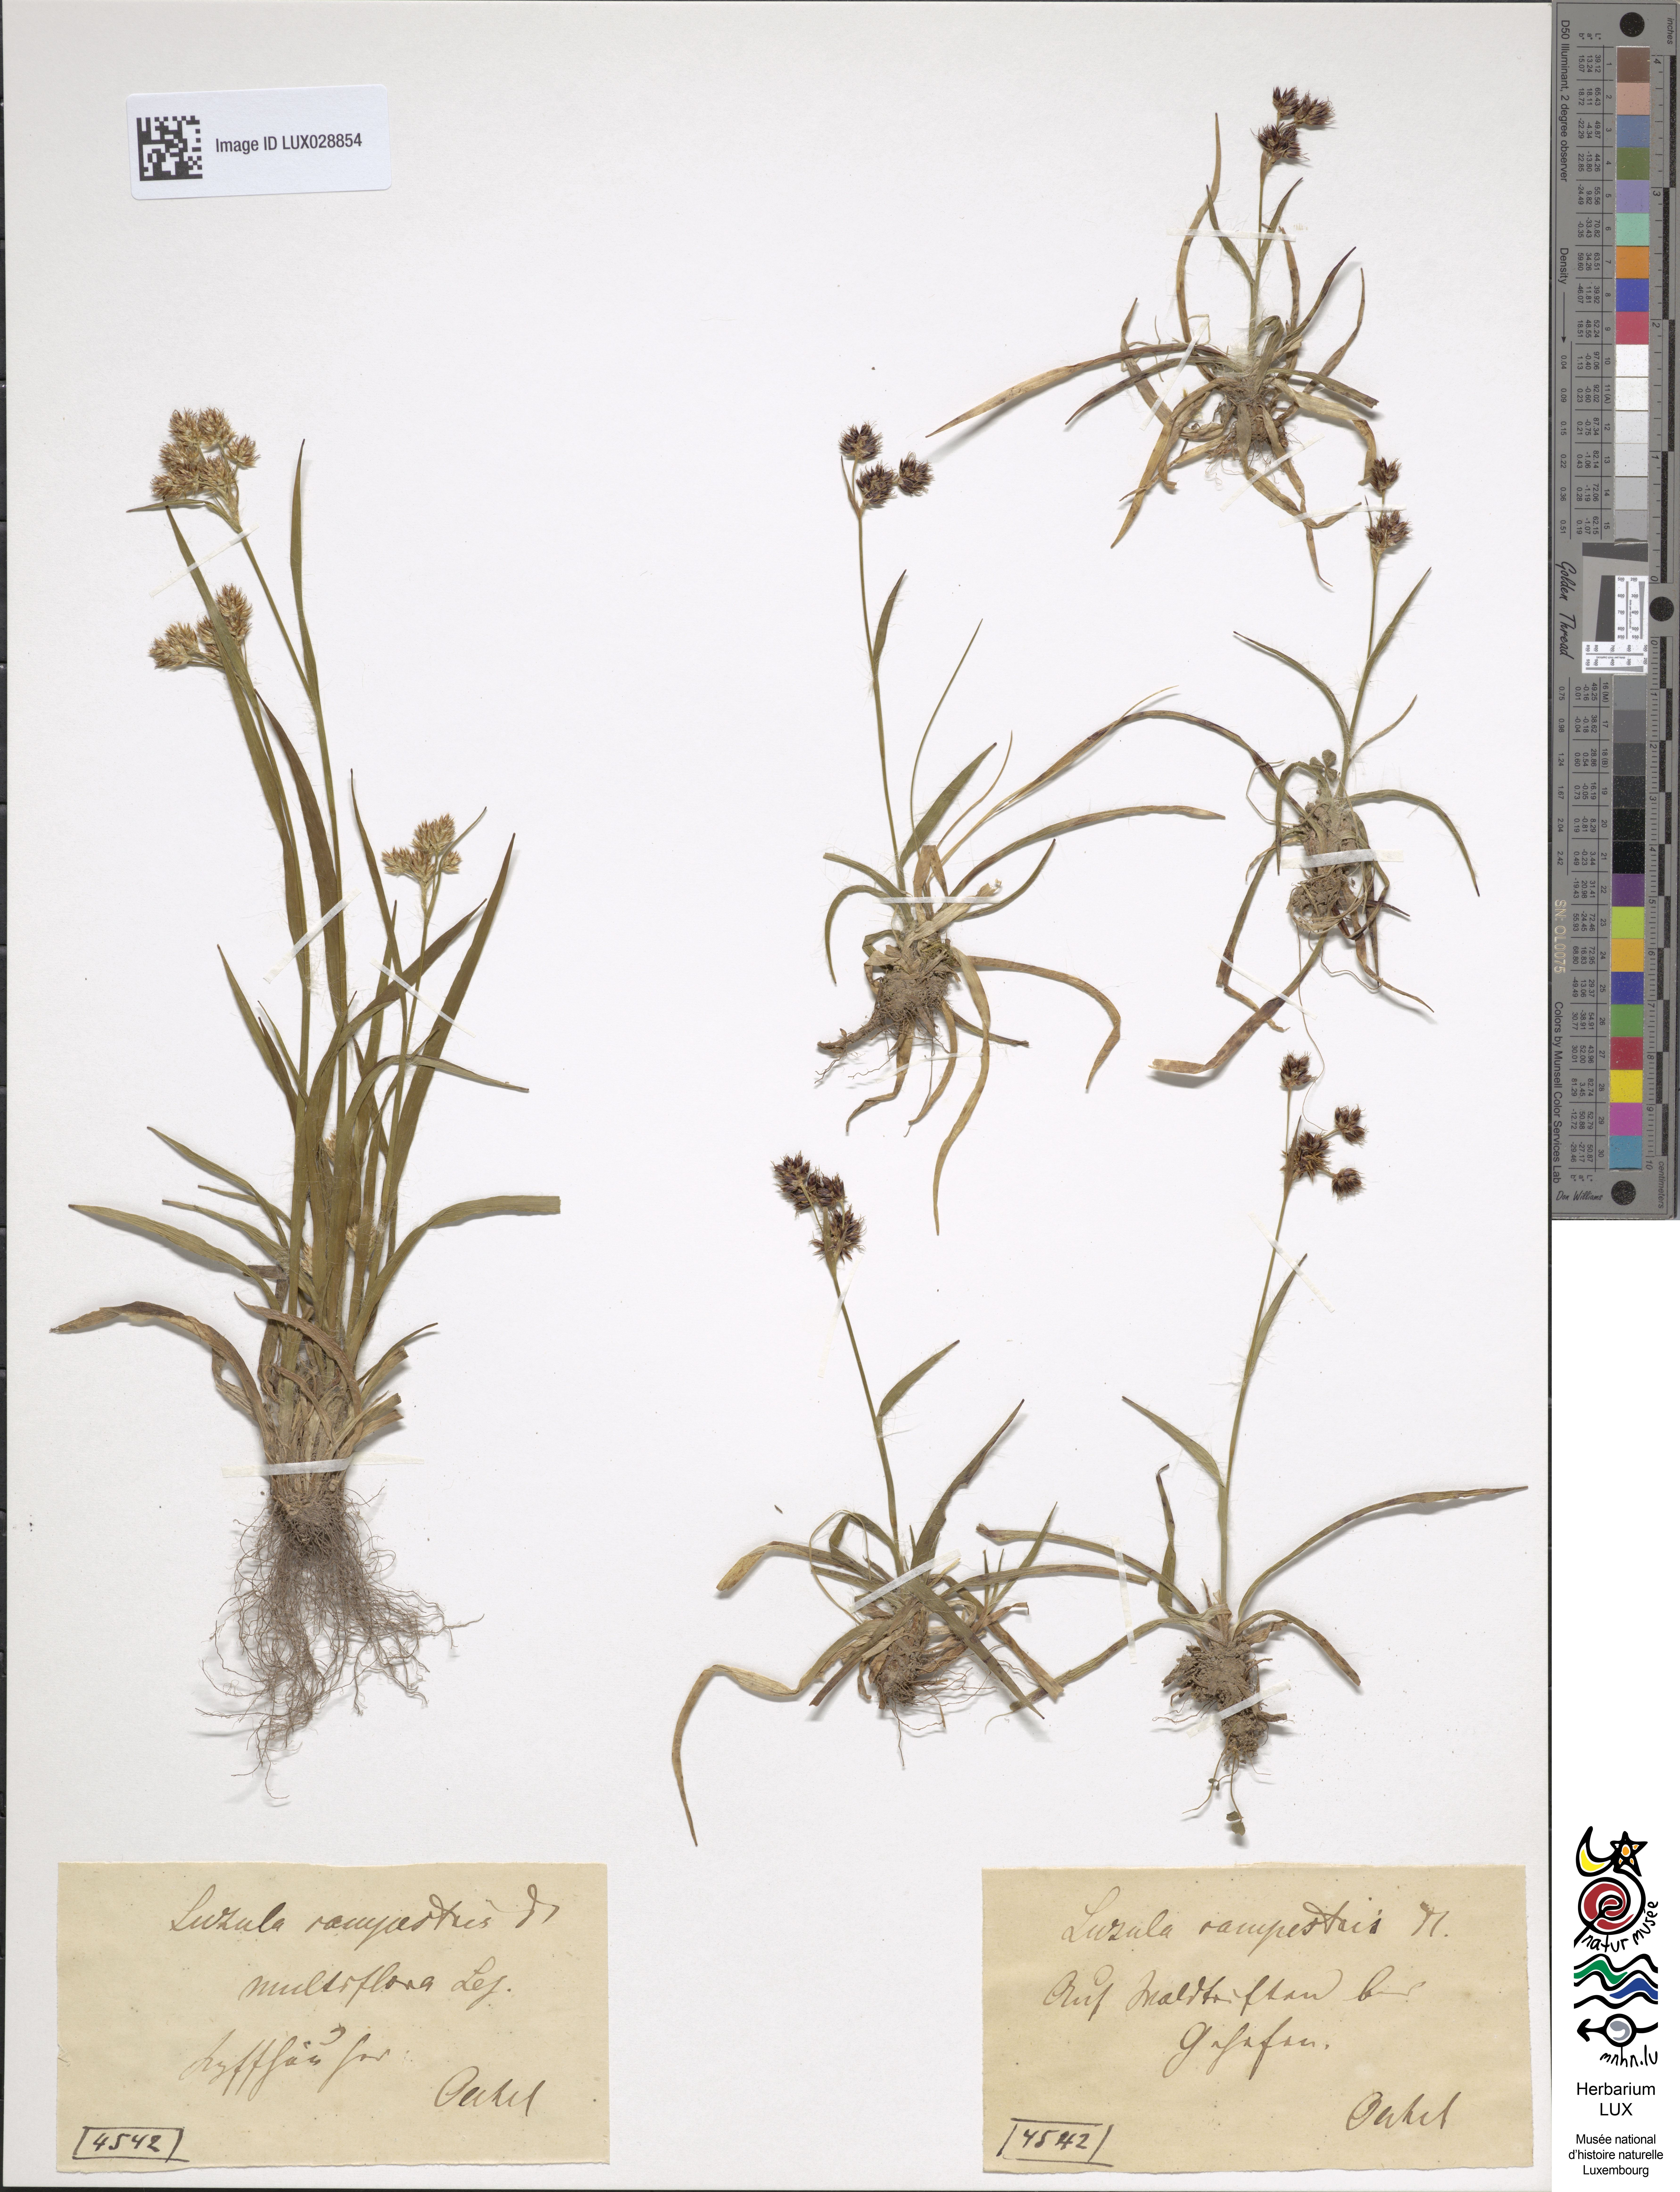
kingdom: Plantae
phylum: Tracheophyta
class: Liliopsida
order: Poales
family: Juncaceae
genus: Luzula
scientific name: Luzula multiflora
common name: Heath wood-rush
